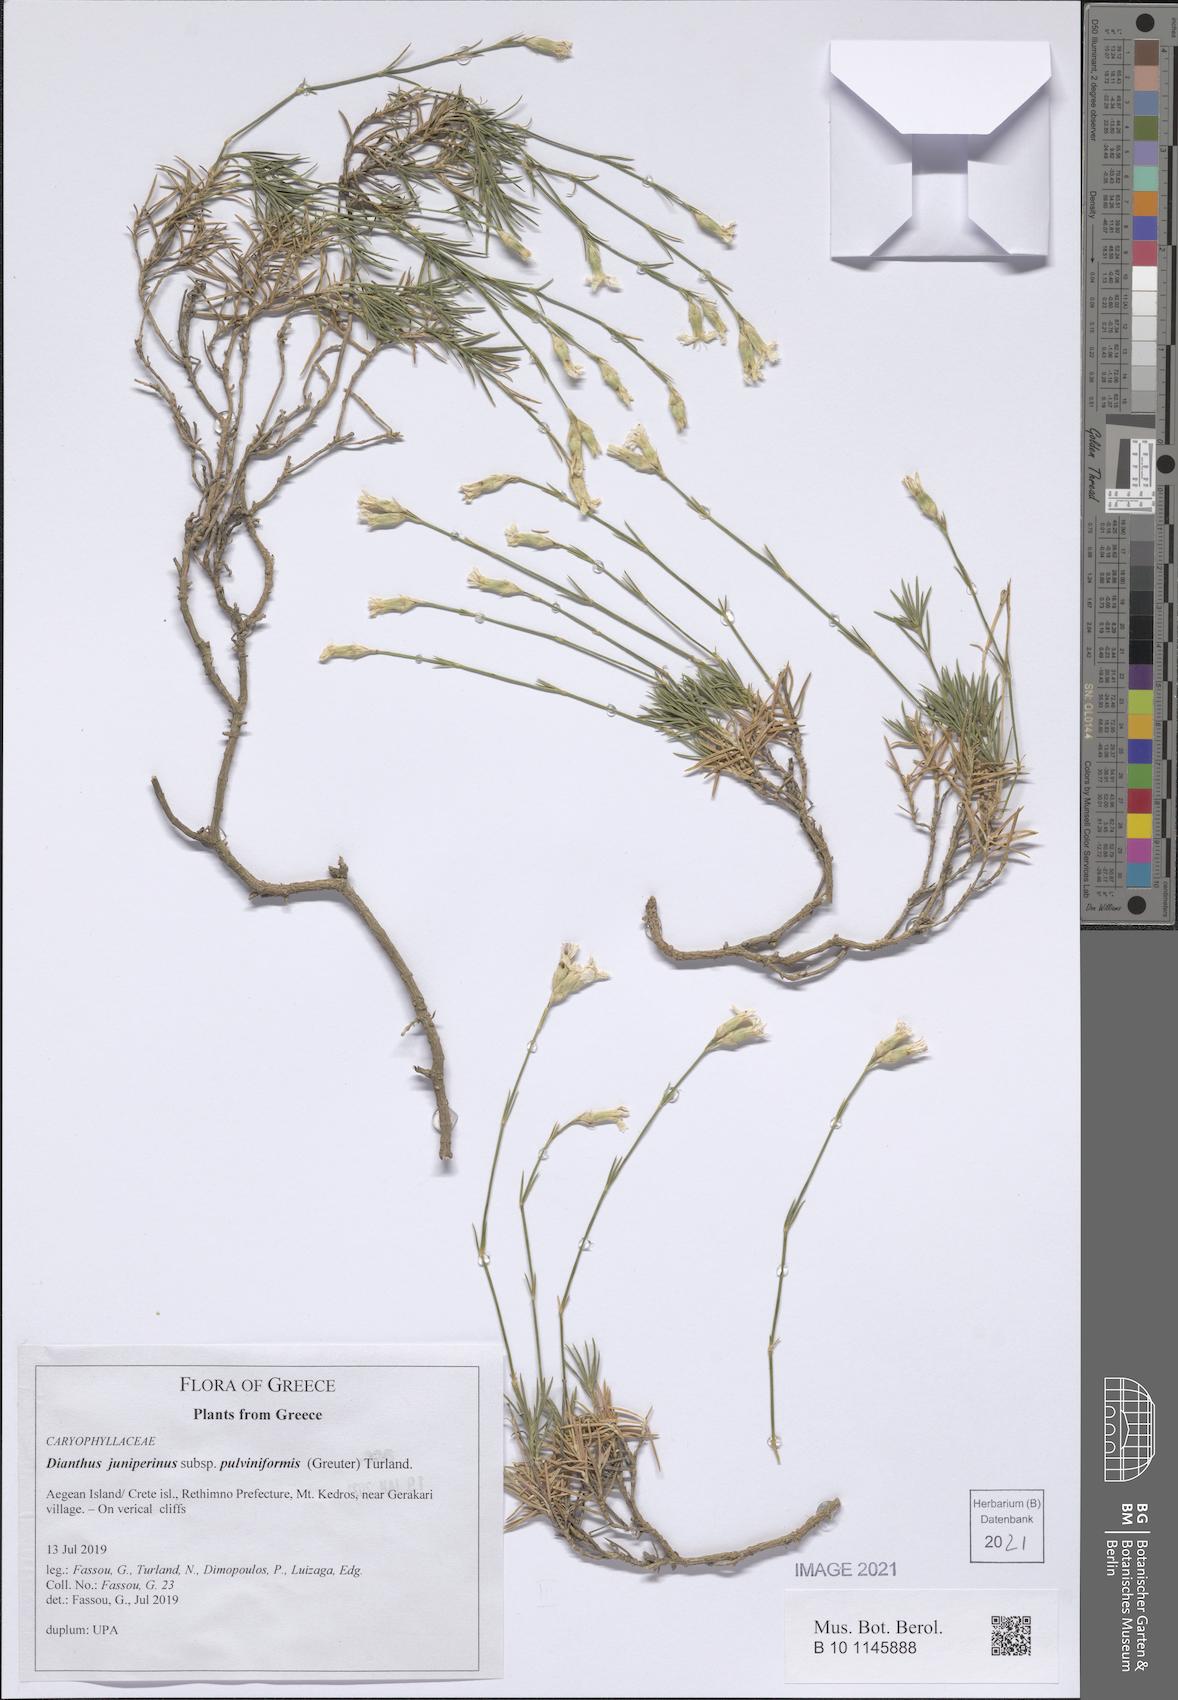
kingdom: Plantae
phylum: Tracheophyta
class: Magnoliopsida
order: Caryophyllales
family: Caryophyllaceae
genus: Dianthus
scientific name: Dianthus juniperinus
